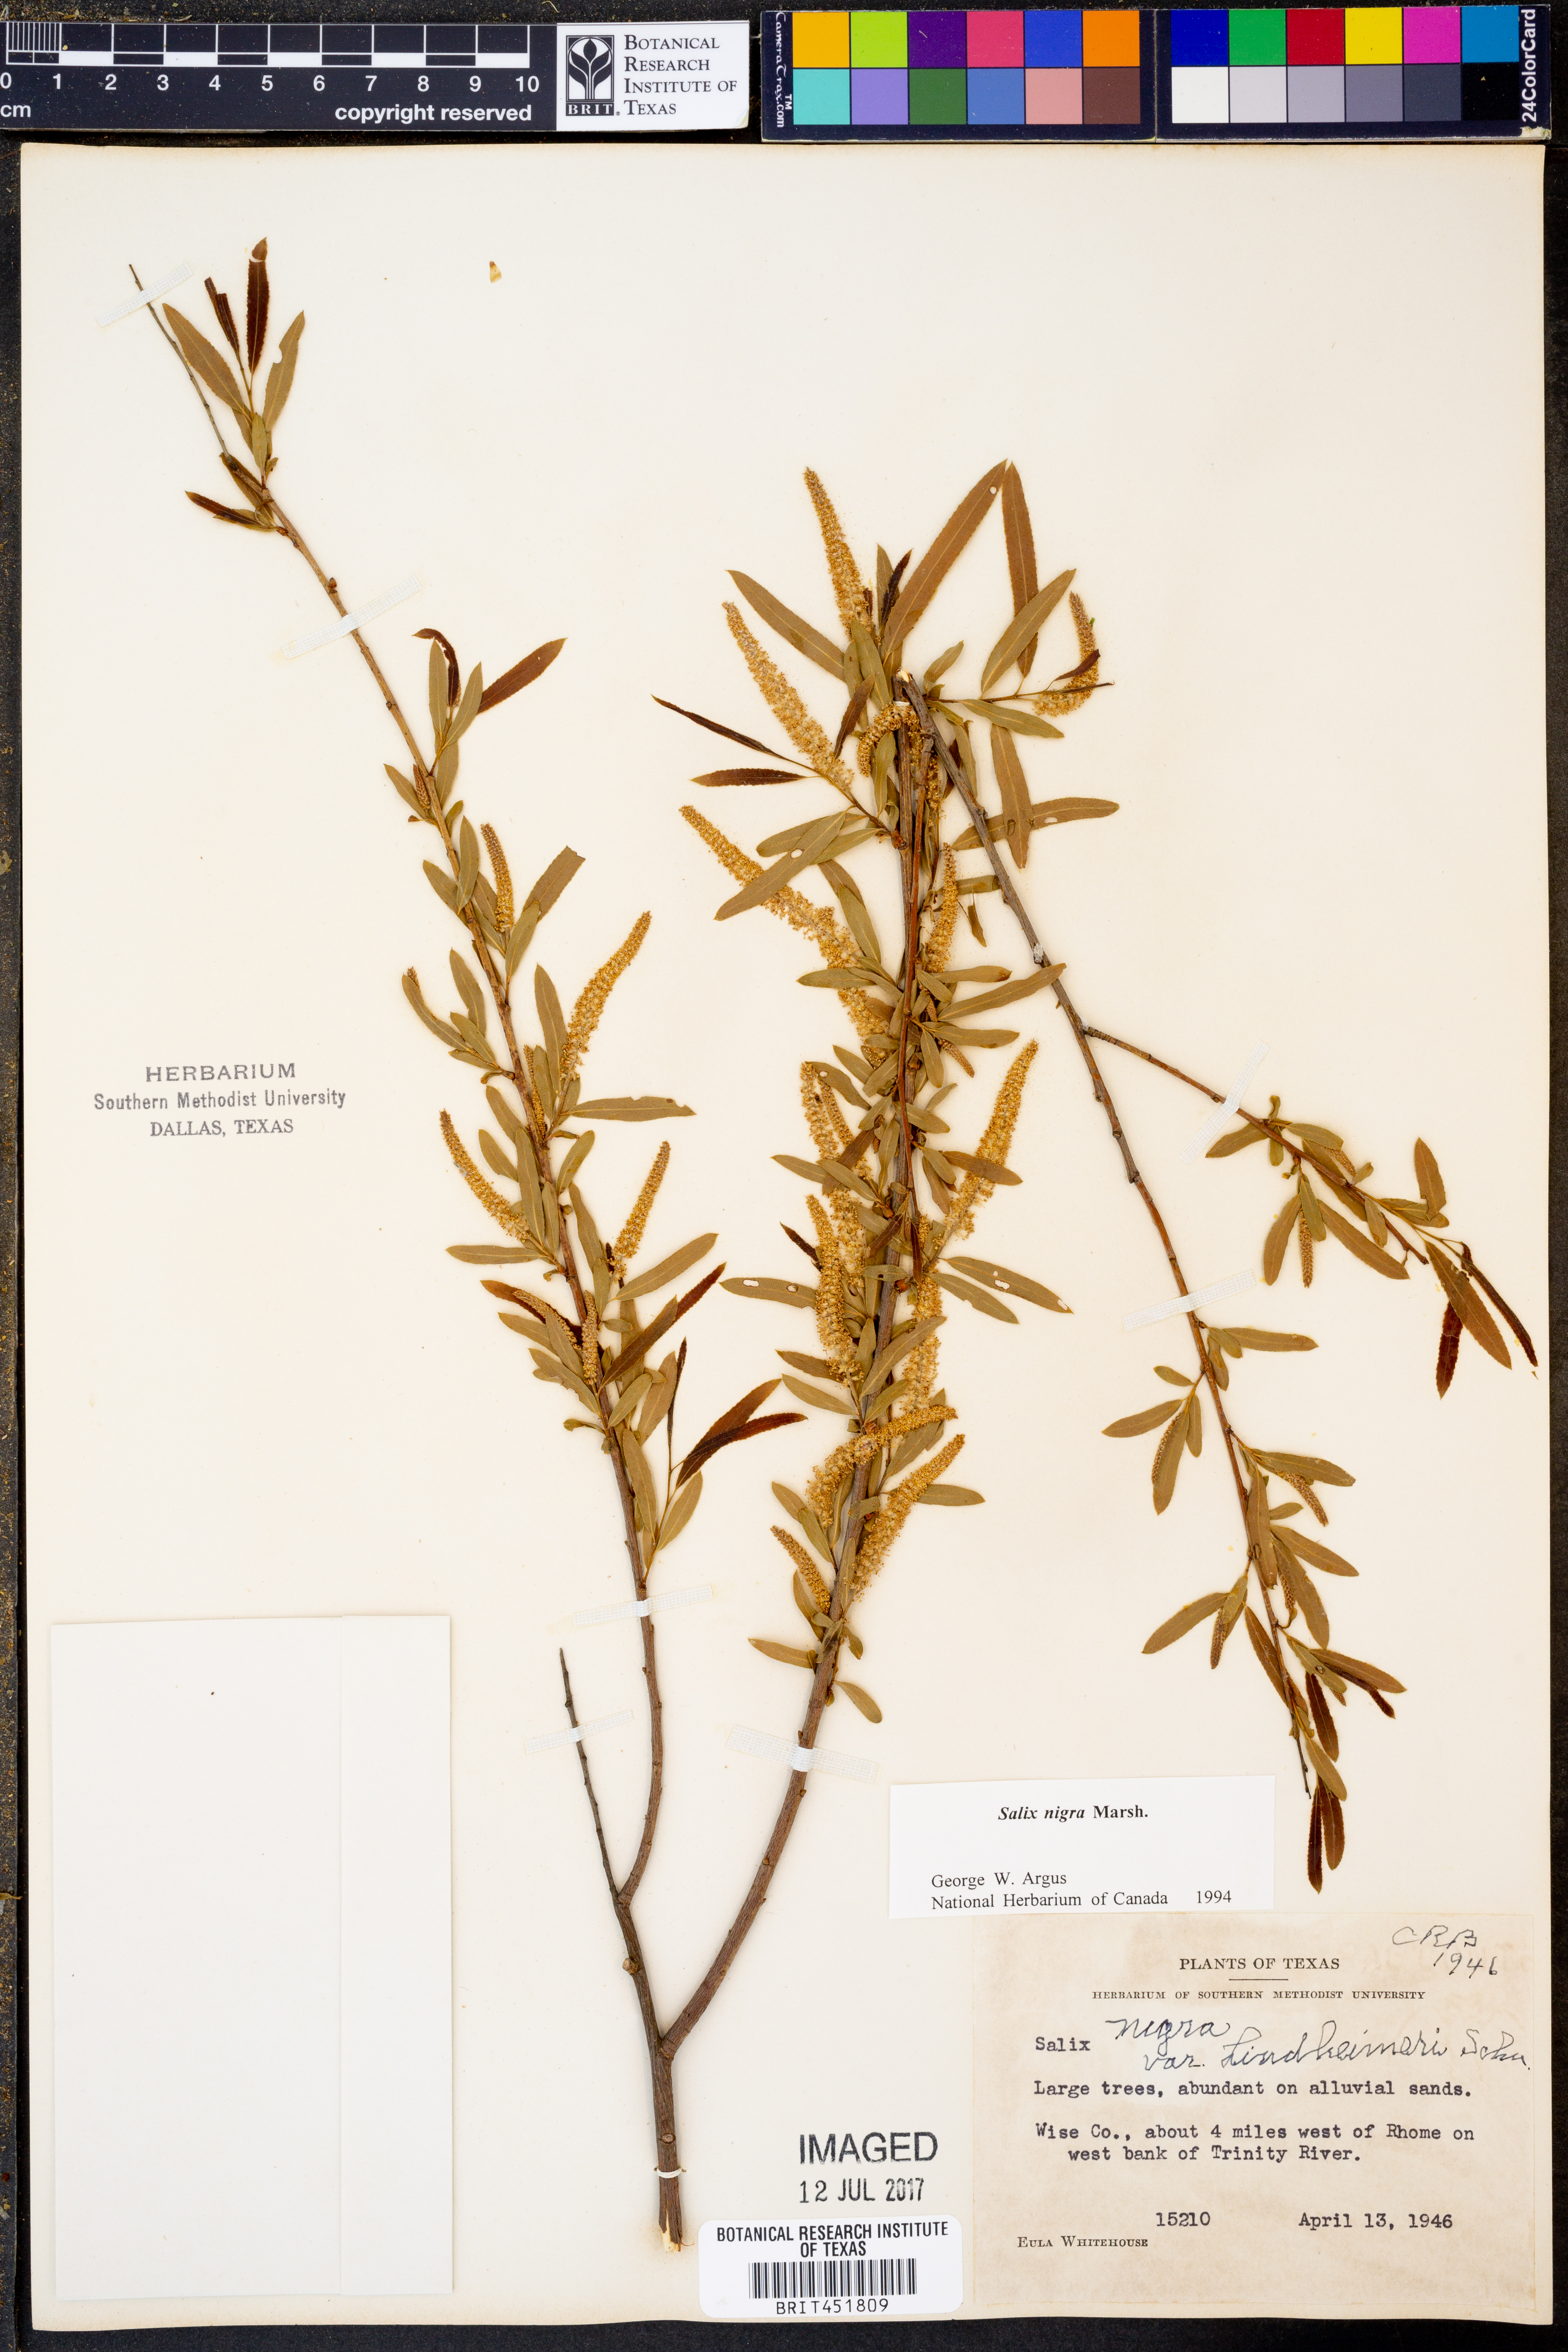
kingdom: Plantae
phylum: Tracheophyta
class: Magnoliopsida
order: Malpighiales
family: Salicaceae
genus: Salix
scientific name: Salix nigra
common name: Black willow
